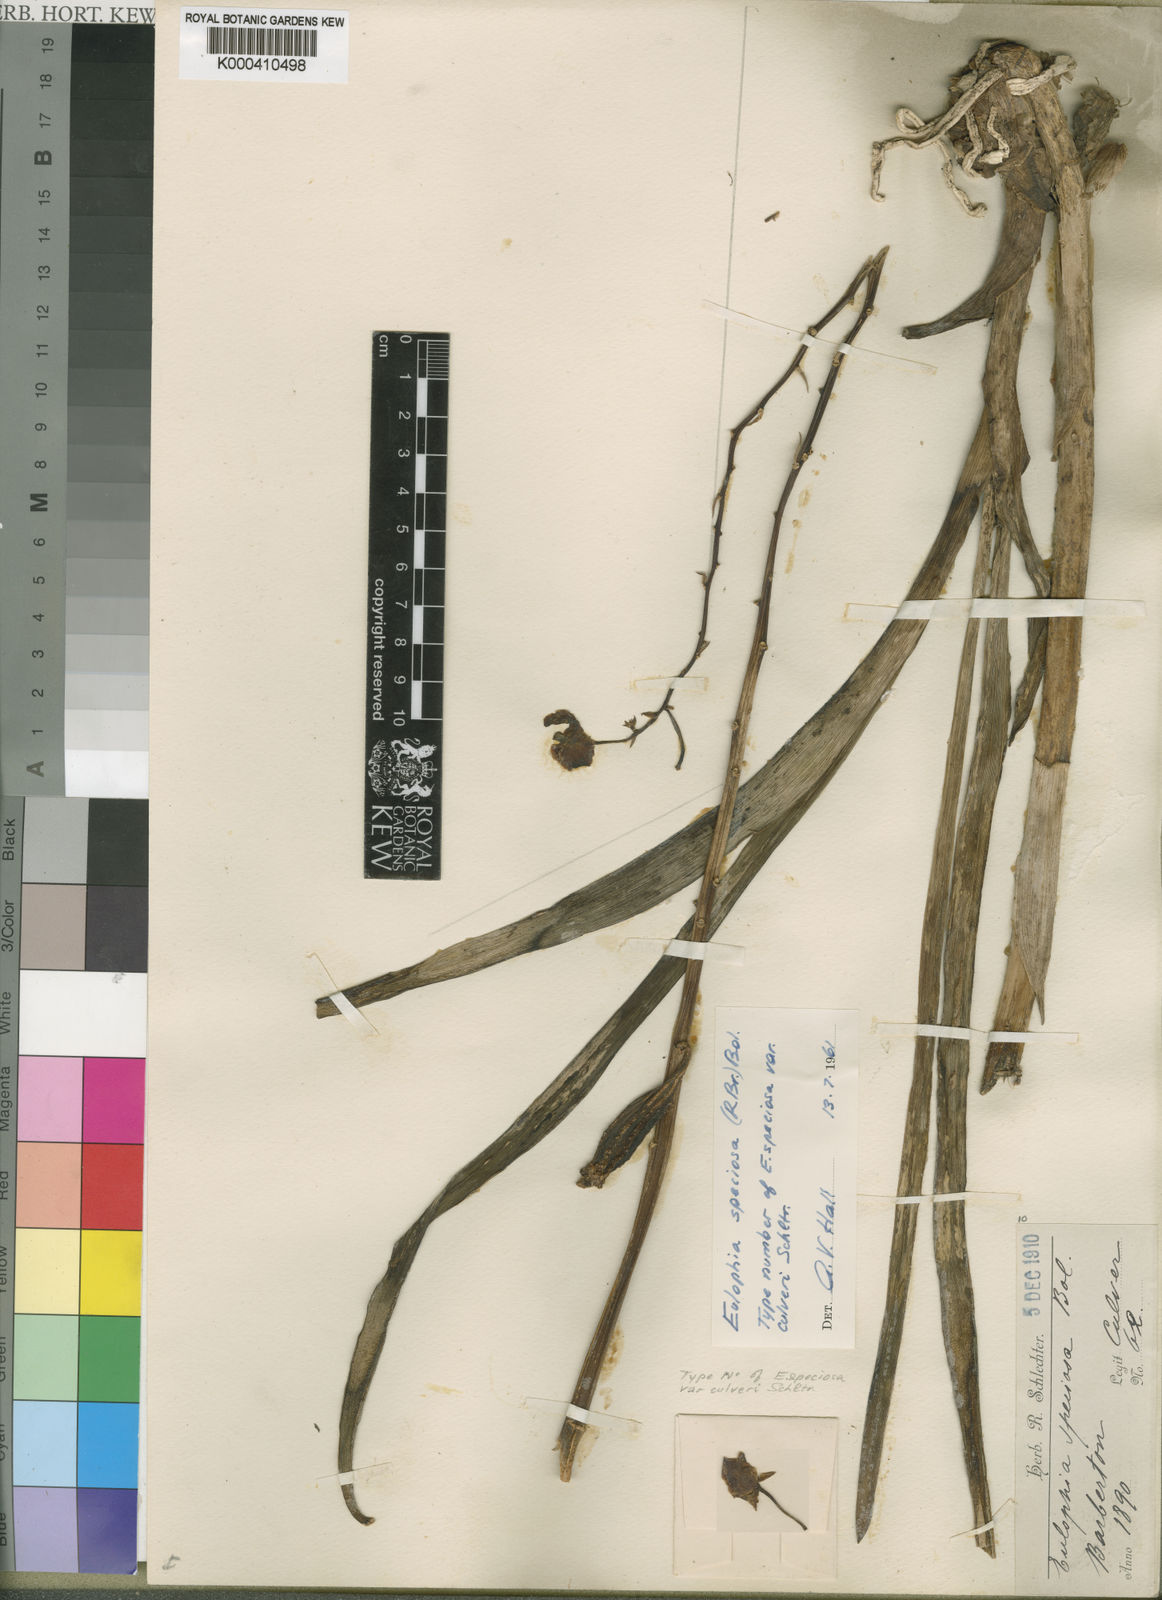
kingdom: Plantae
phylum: Tracheophyta
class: Liliopsida
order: Asparagales
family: Orchidaceae
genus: Eulophia
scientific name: Eulophia speciosa
